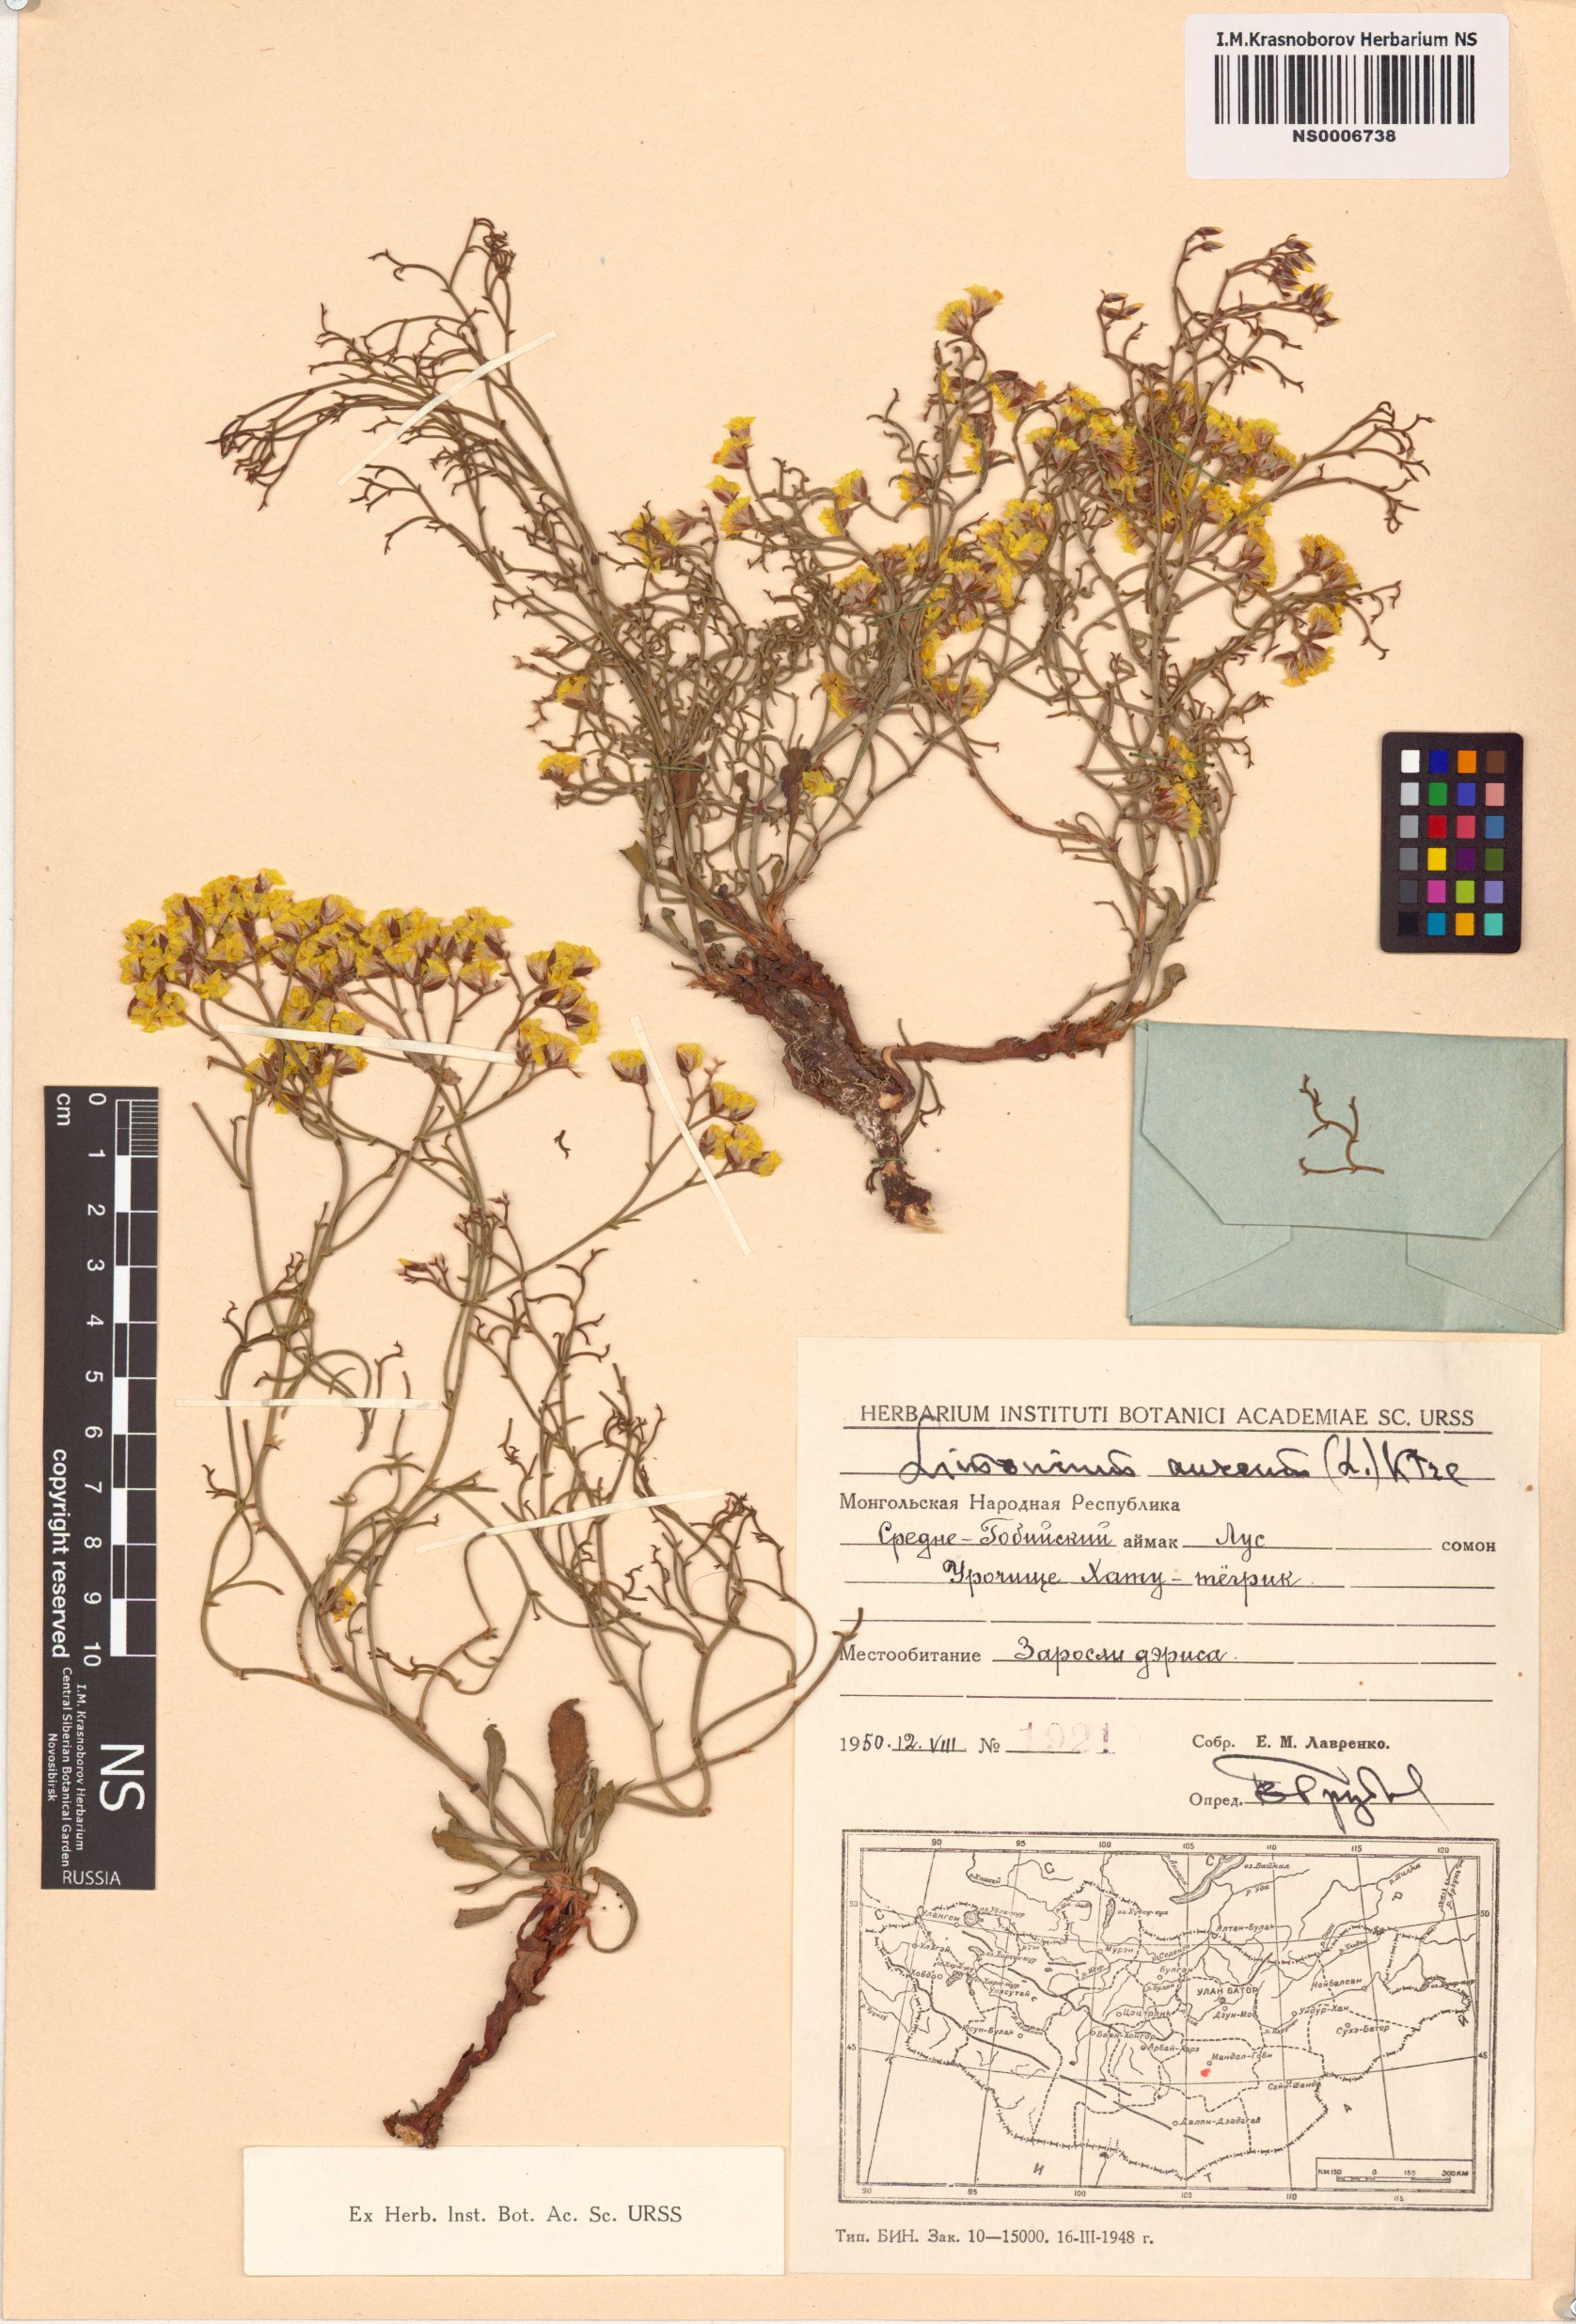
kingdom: Plantae
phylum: Tracheophyta
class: Magnoliopsida
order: Caryophyllales
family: Plumbaginaceae
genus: Limonium
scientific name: Limonium aureum
